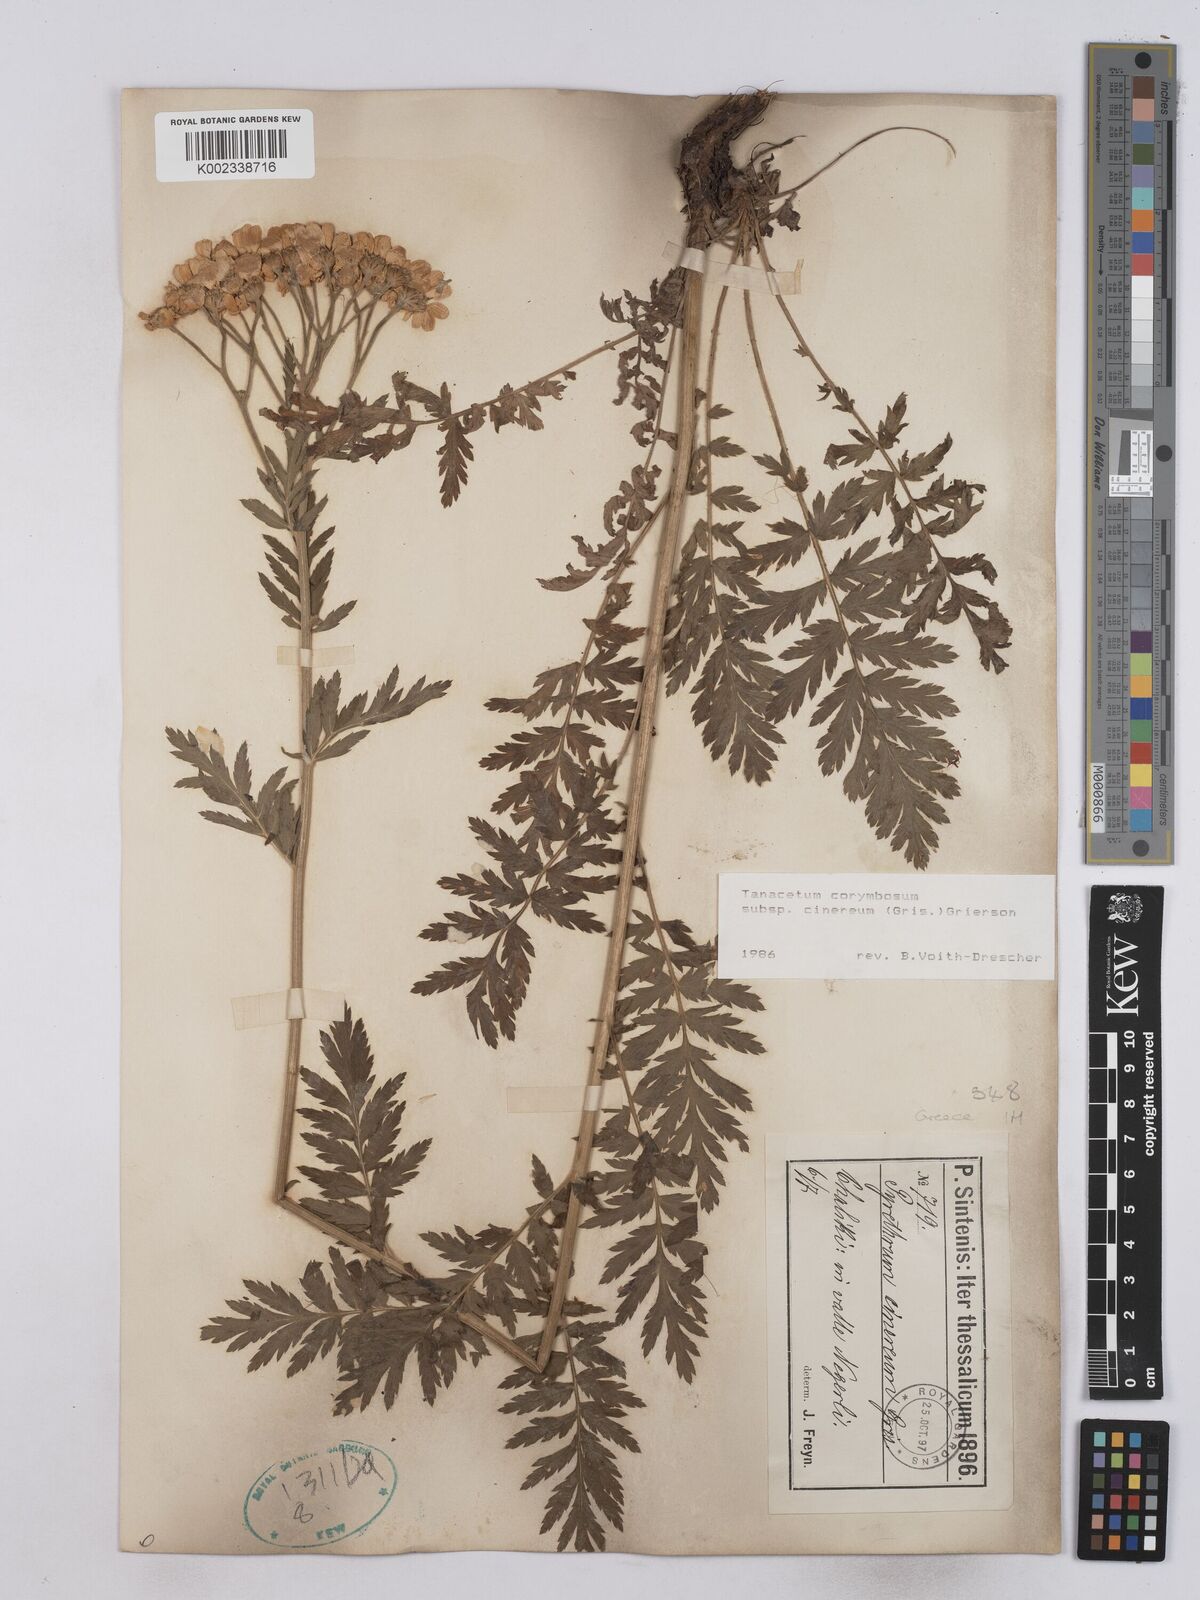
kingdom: Plantae
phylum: Tracheophyta
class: Magnoliopsida
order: Asterales
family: Asteraceae
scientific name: Asteraceae
